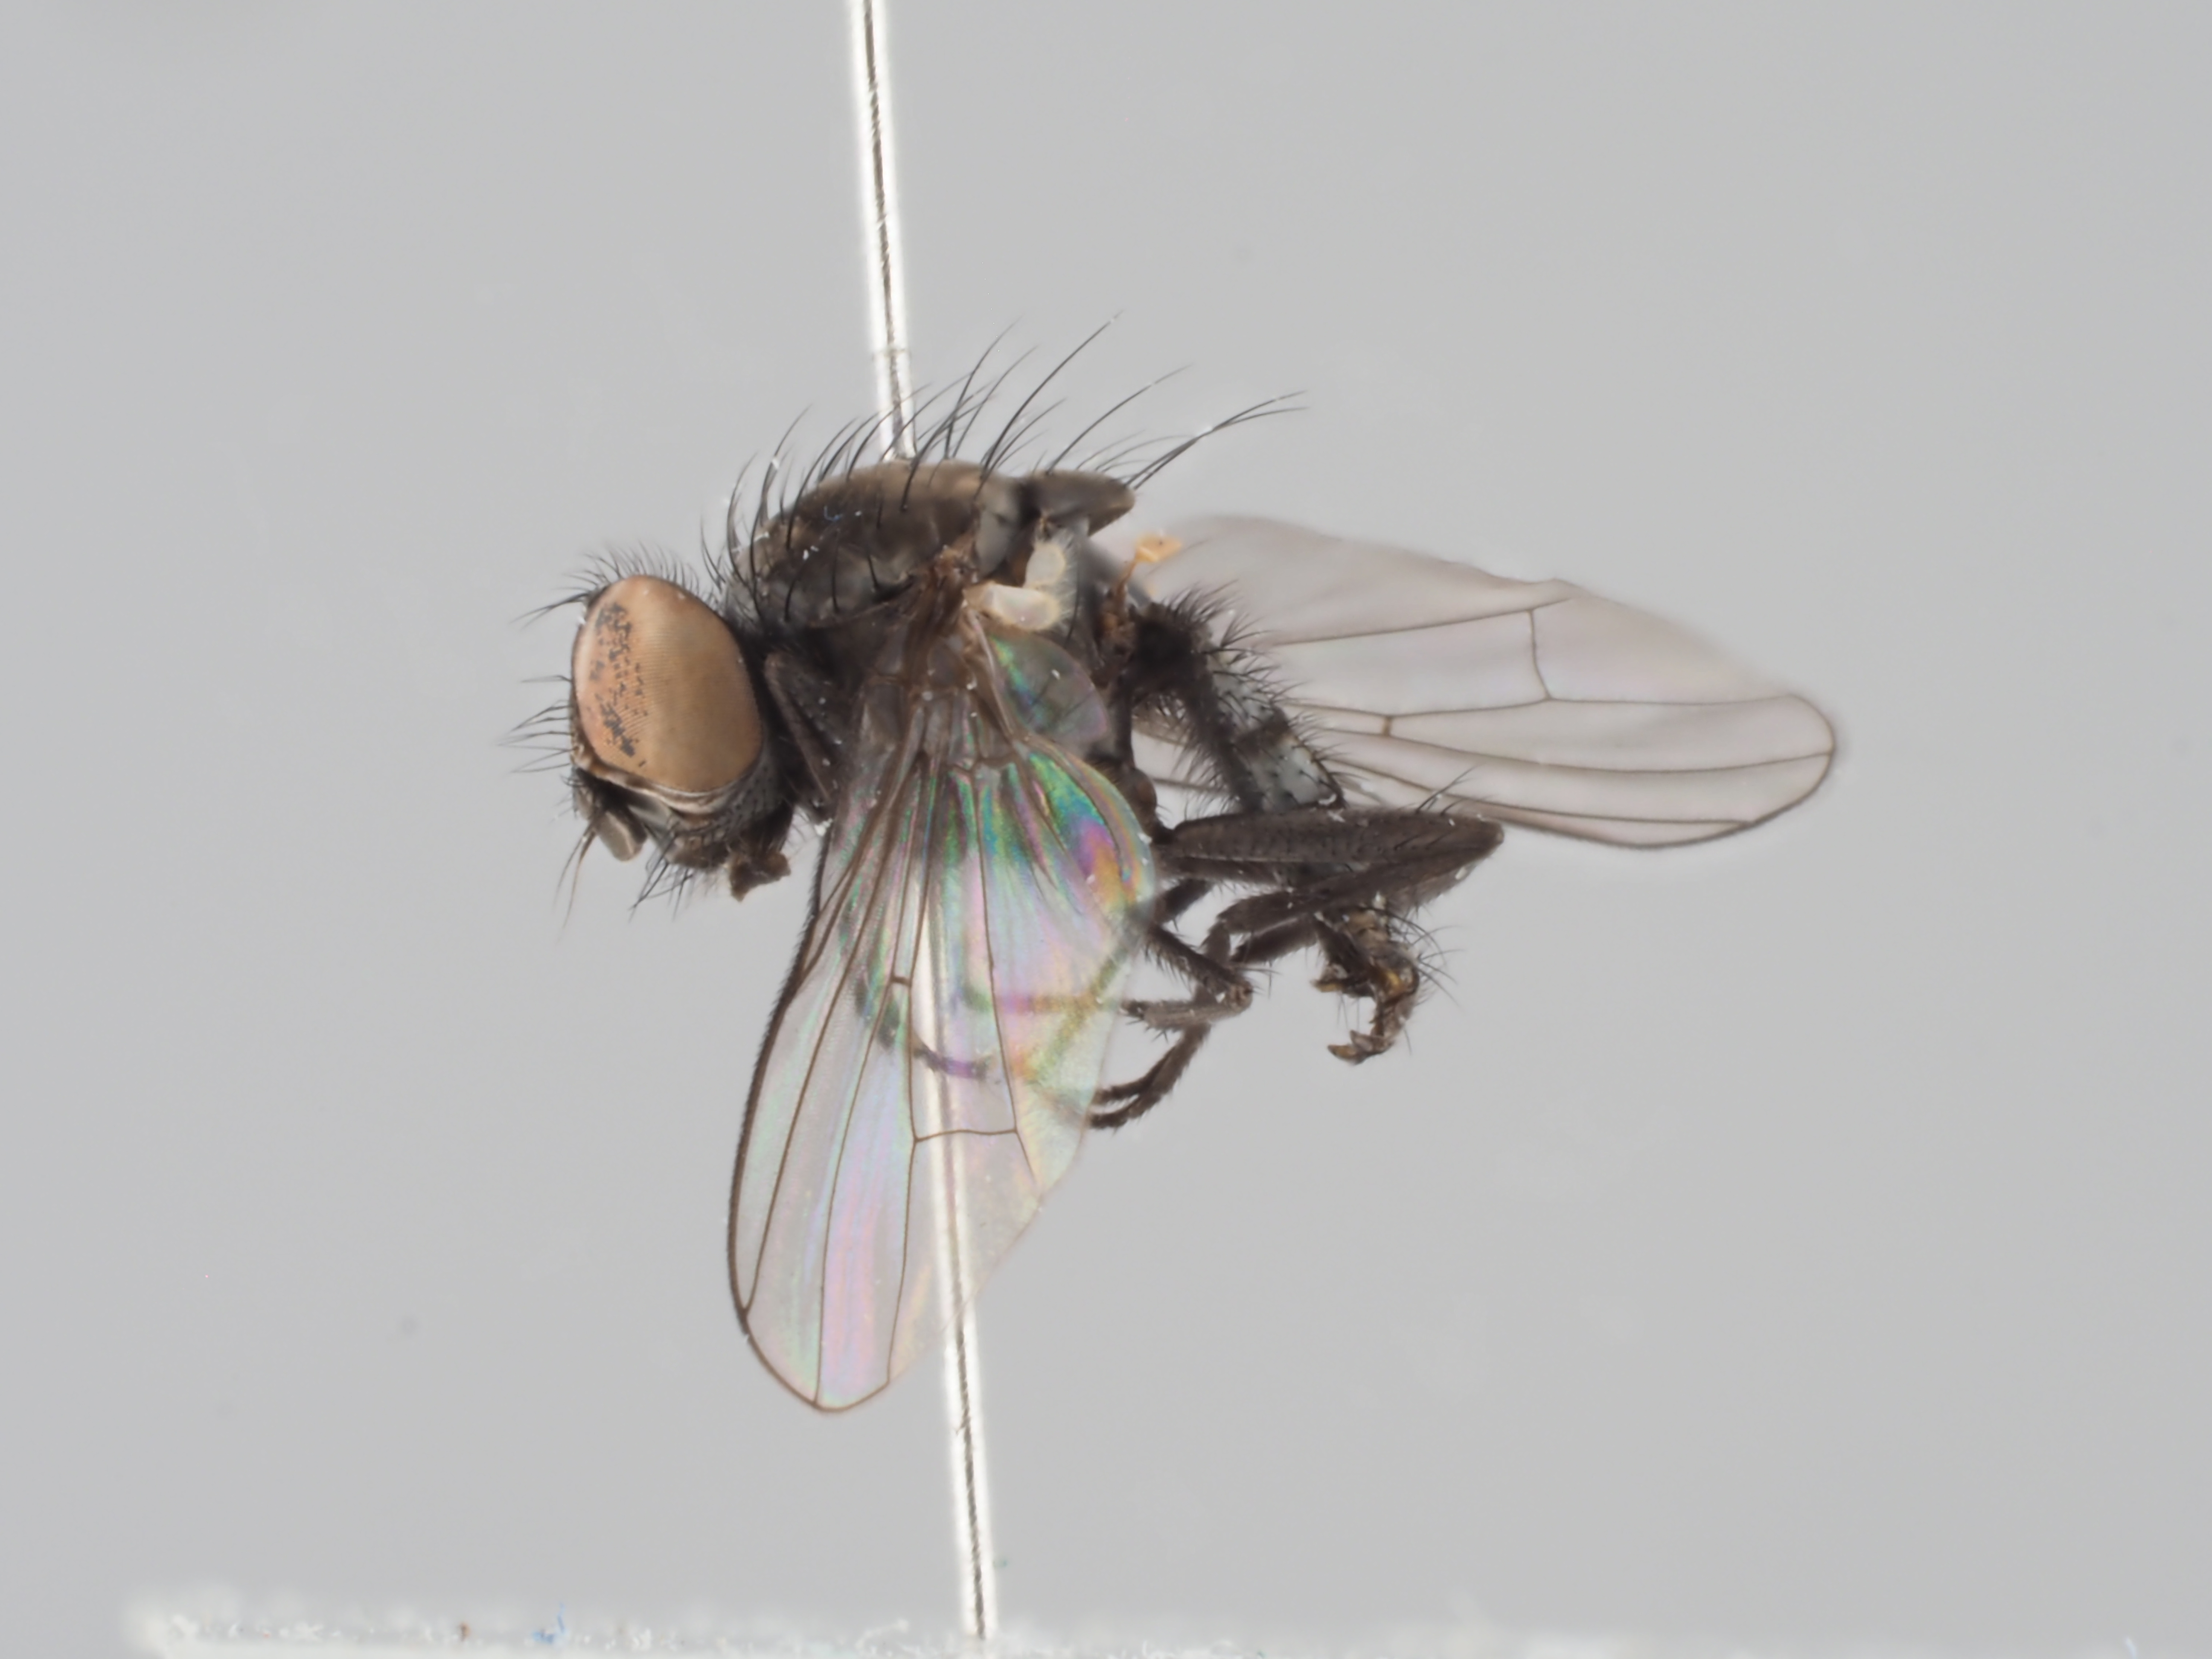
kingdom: Animalia
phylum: Arthropoda
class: Insecta
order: Diptera
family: Anthomyiidae
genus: Pegoplata
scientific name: Pegoplata infirma
